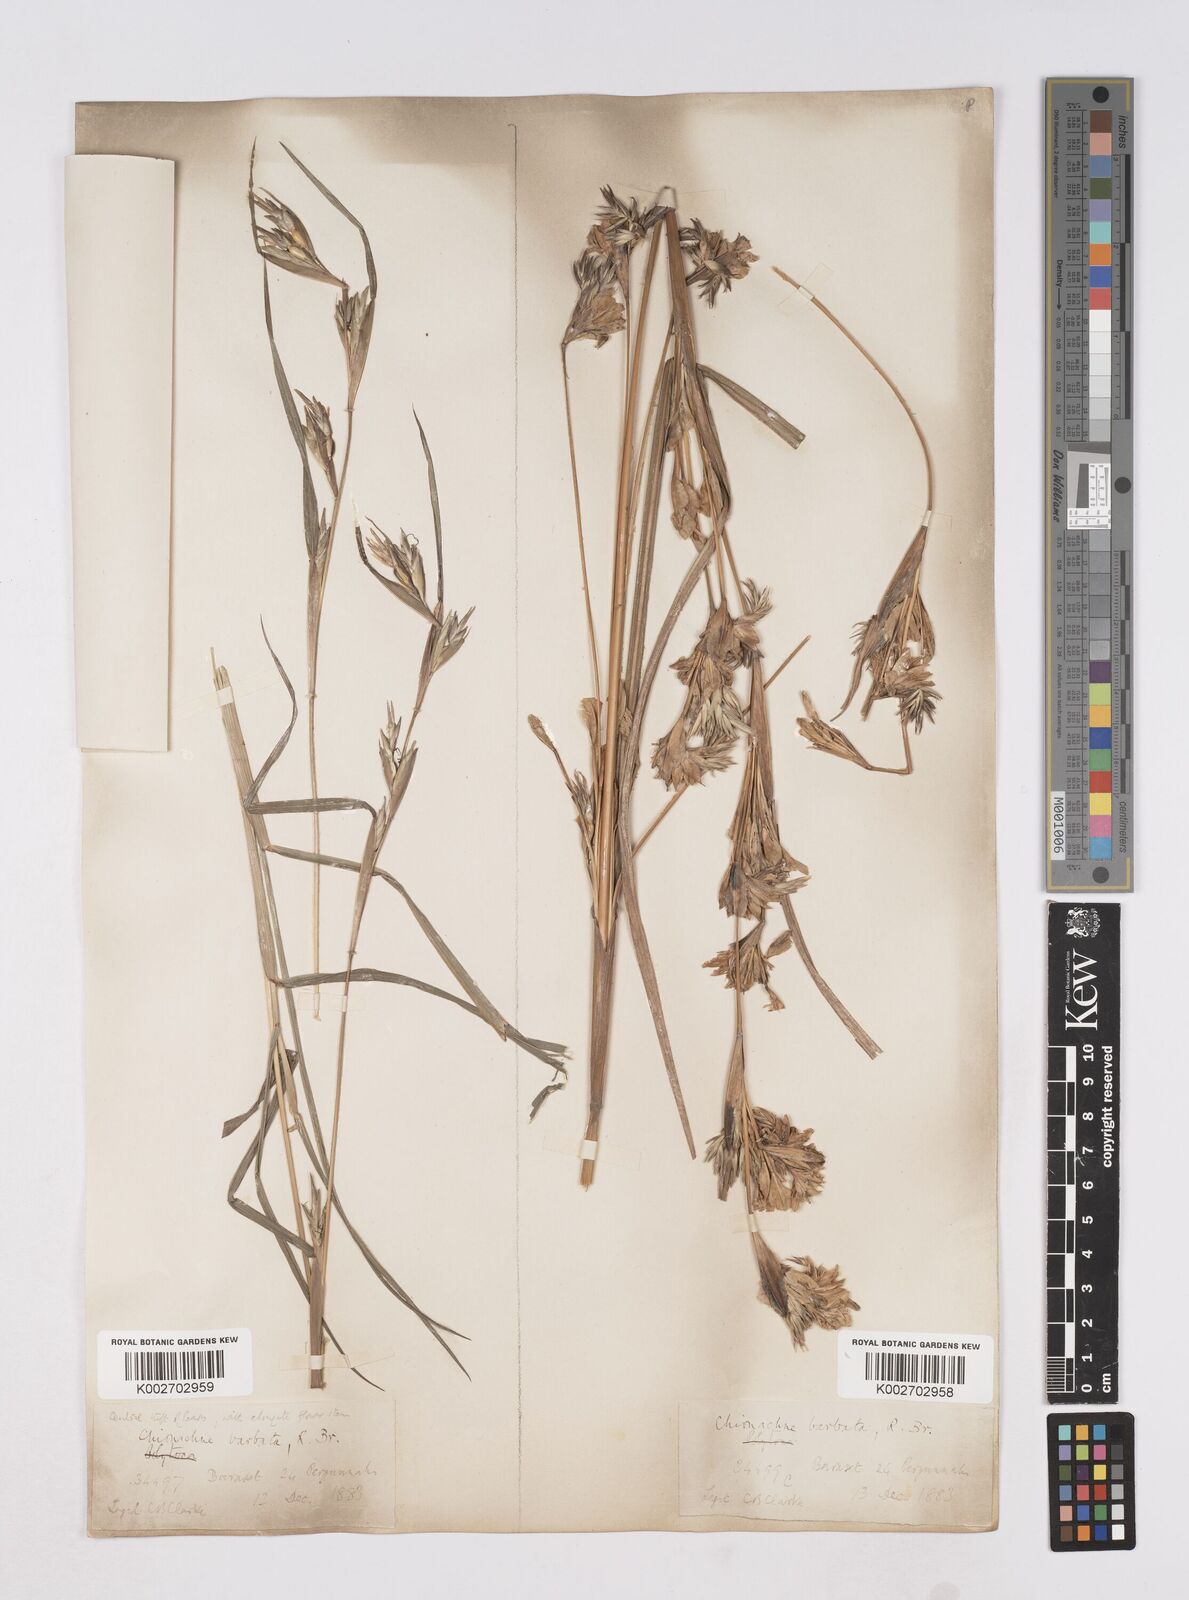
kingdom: Plantae
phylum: Tracheophyta
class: Liliopsida
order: Poales
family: Poaceae
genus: Polytoca
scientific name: Polytoca gigantea
